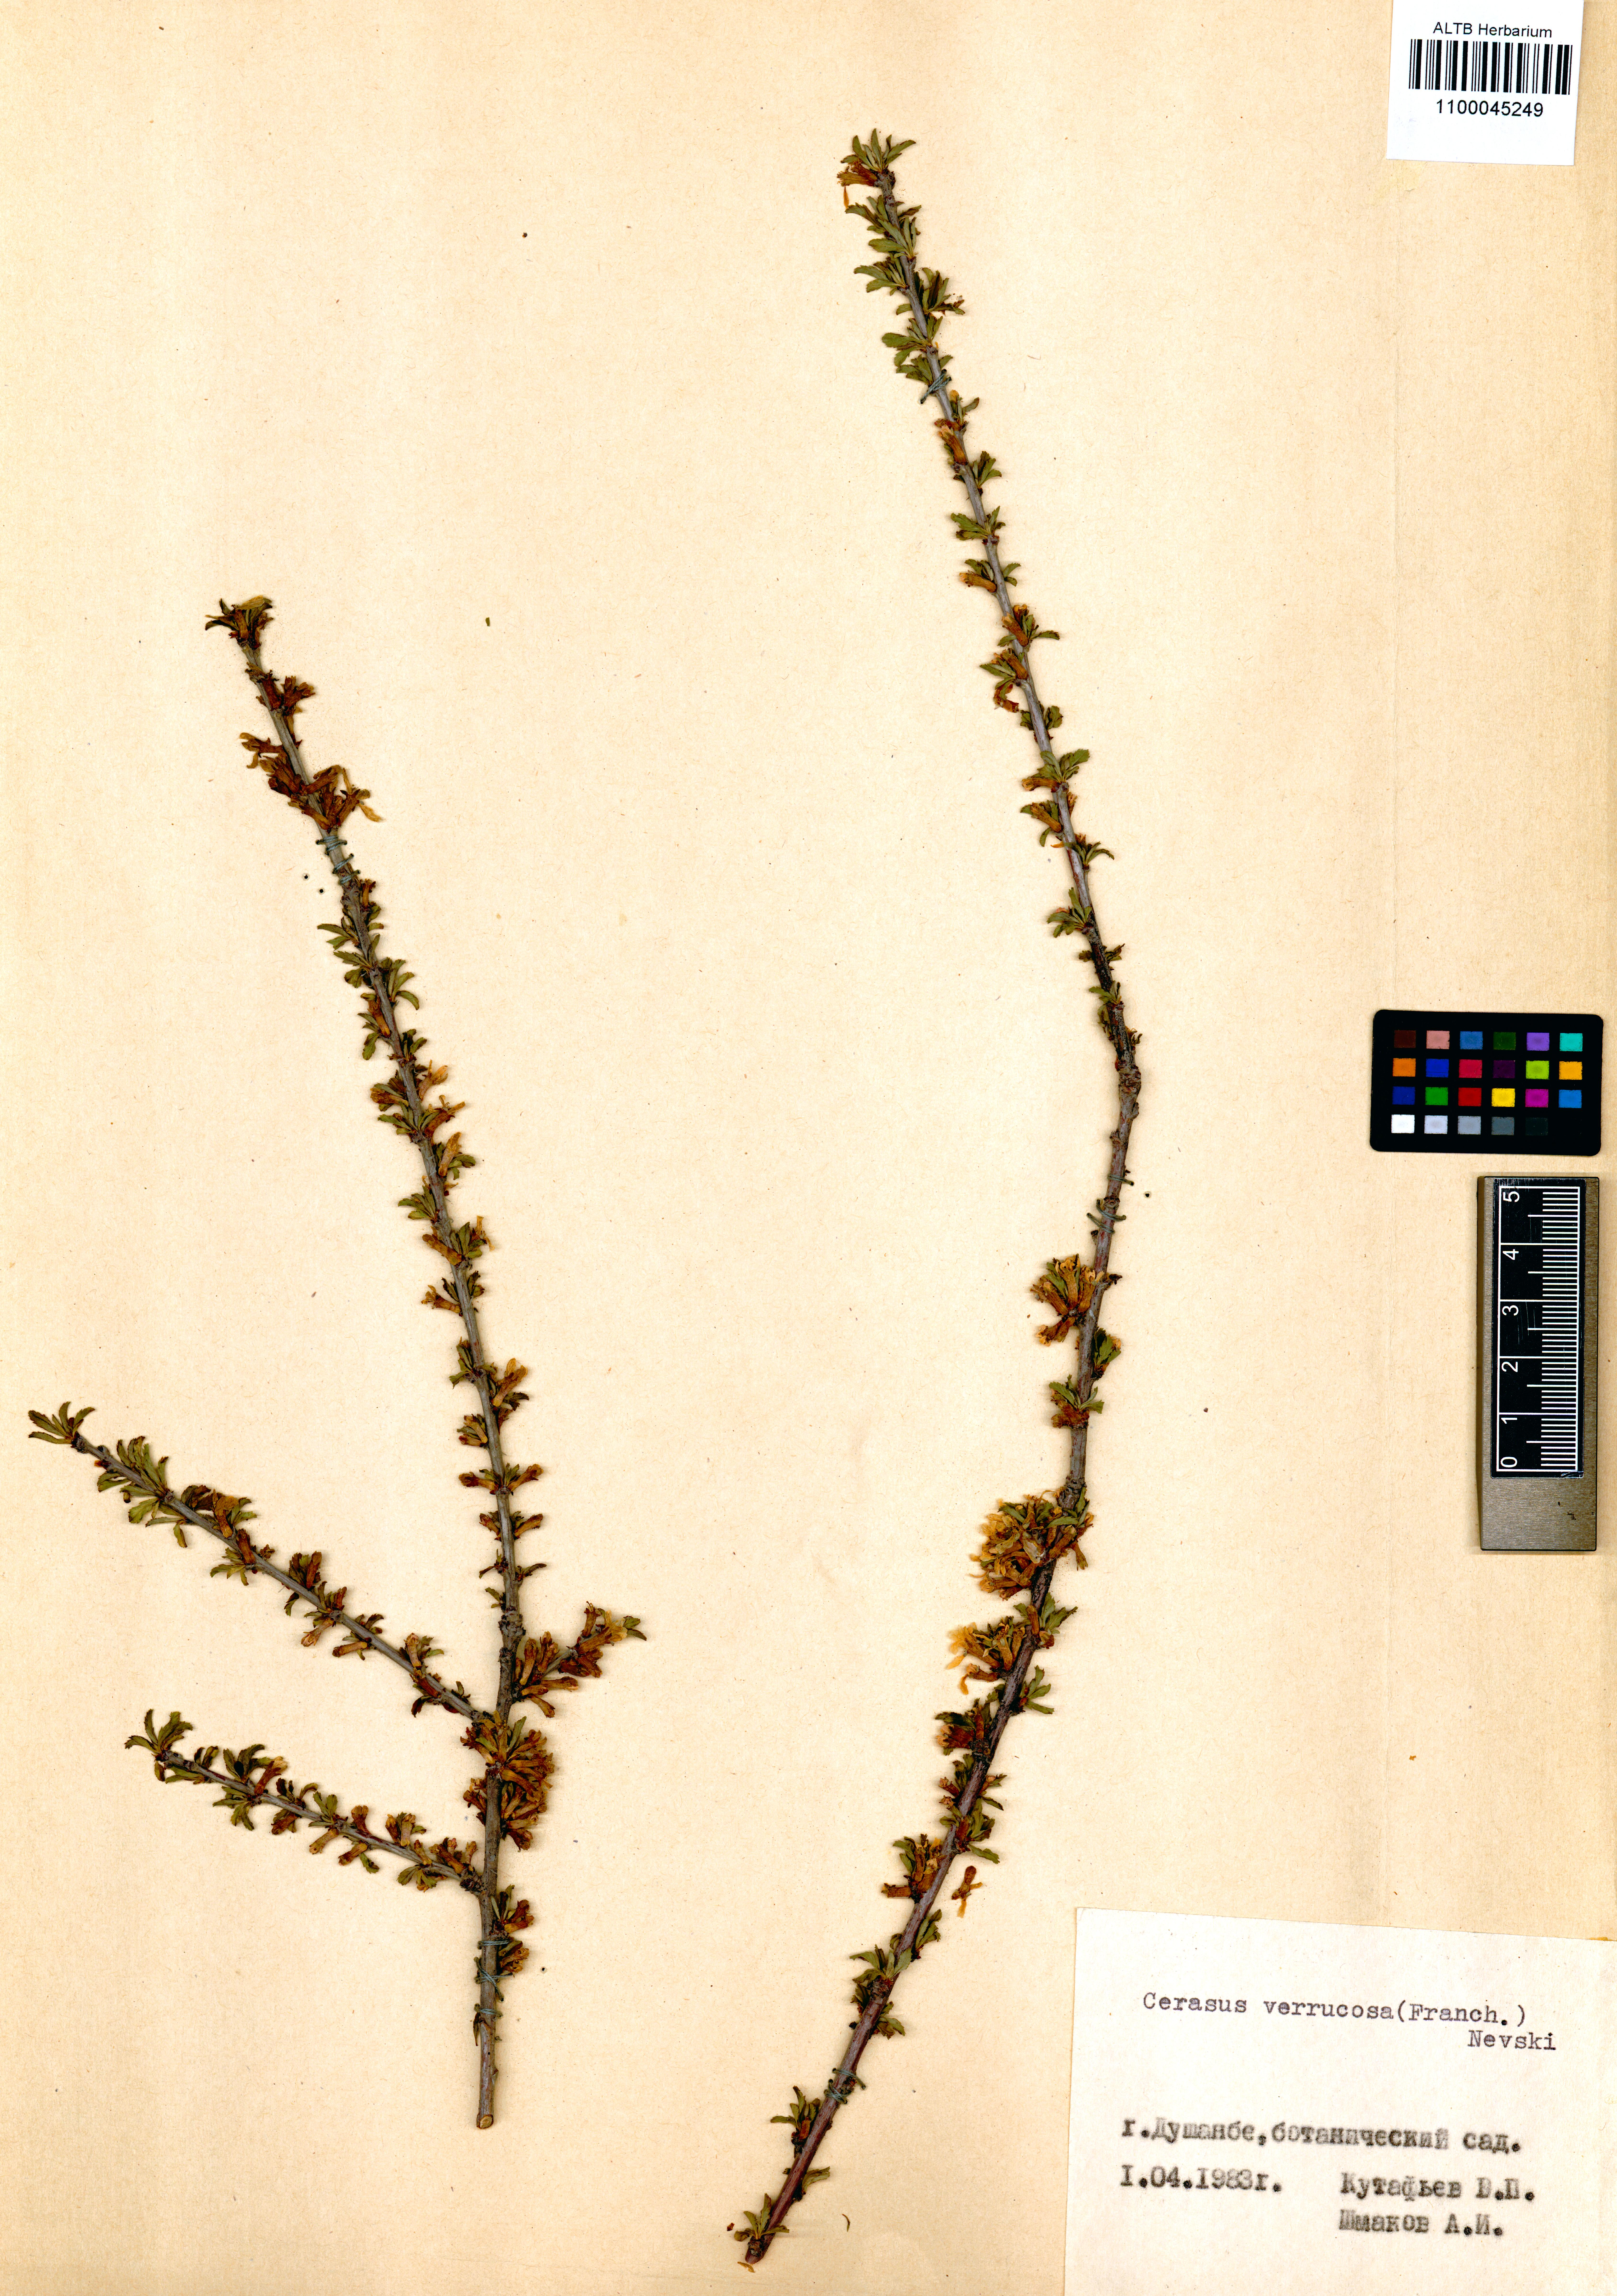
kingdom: Plantae
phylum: Tracheophyta
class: Magnoliopsida
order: Rosales
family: Rosaceae
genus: Prunus
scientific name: Prunus verrucosa
